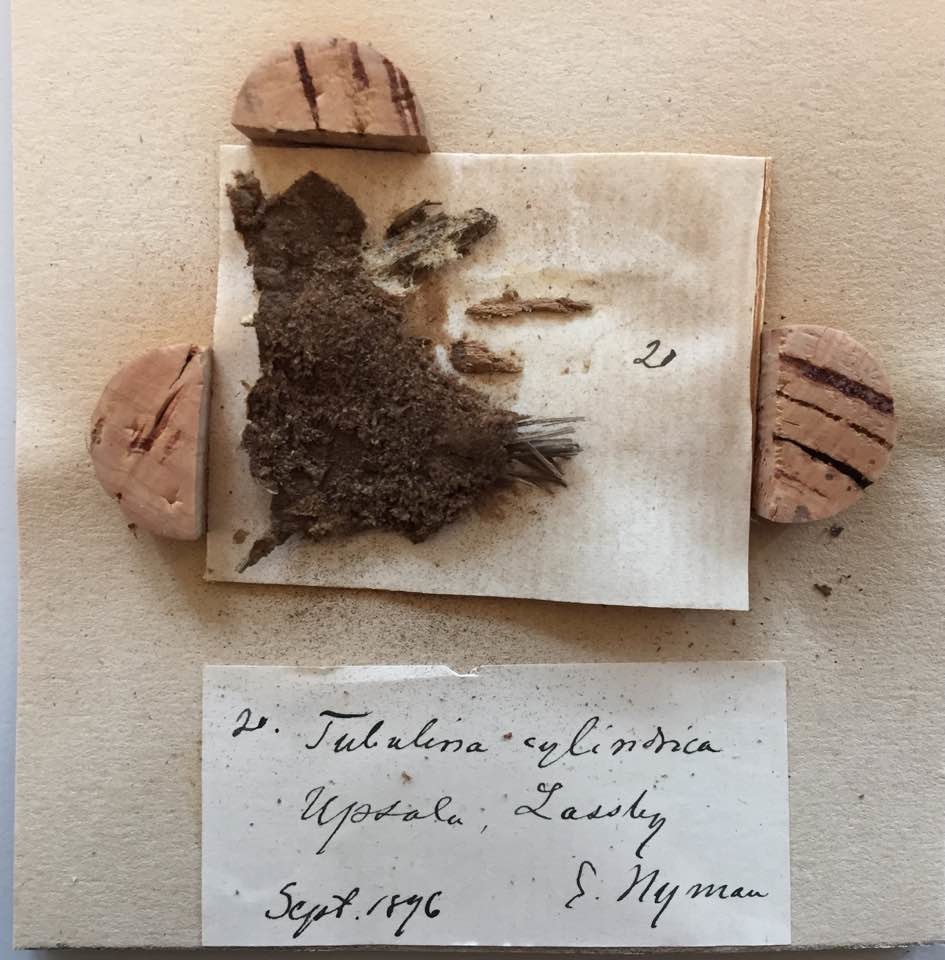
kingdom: Protozoa
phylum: Mycetozoa
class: Myxomycetes
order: Cribrariales
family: Tubiferaceae
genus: Tubifera
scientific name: Tubifera ferruginosa
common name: Red raspberry slime mold
